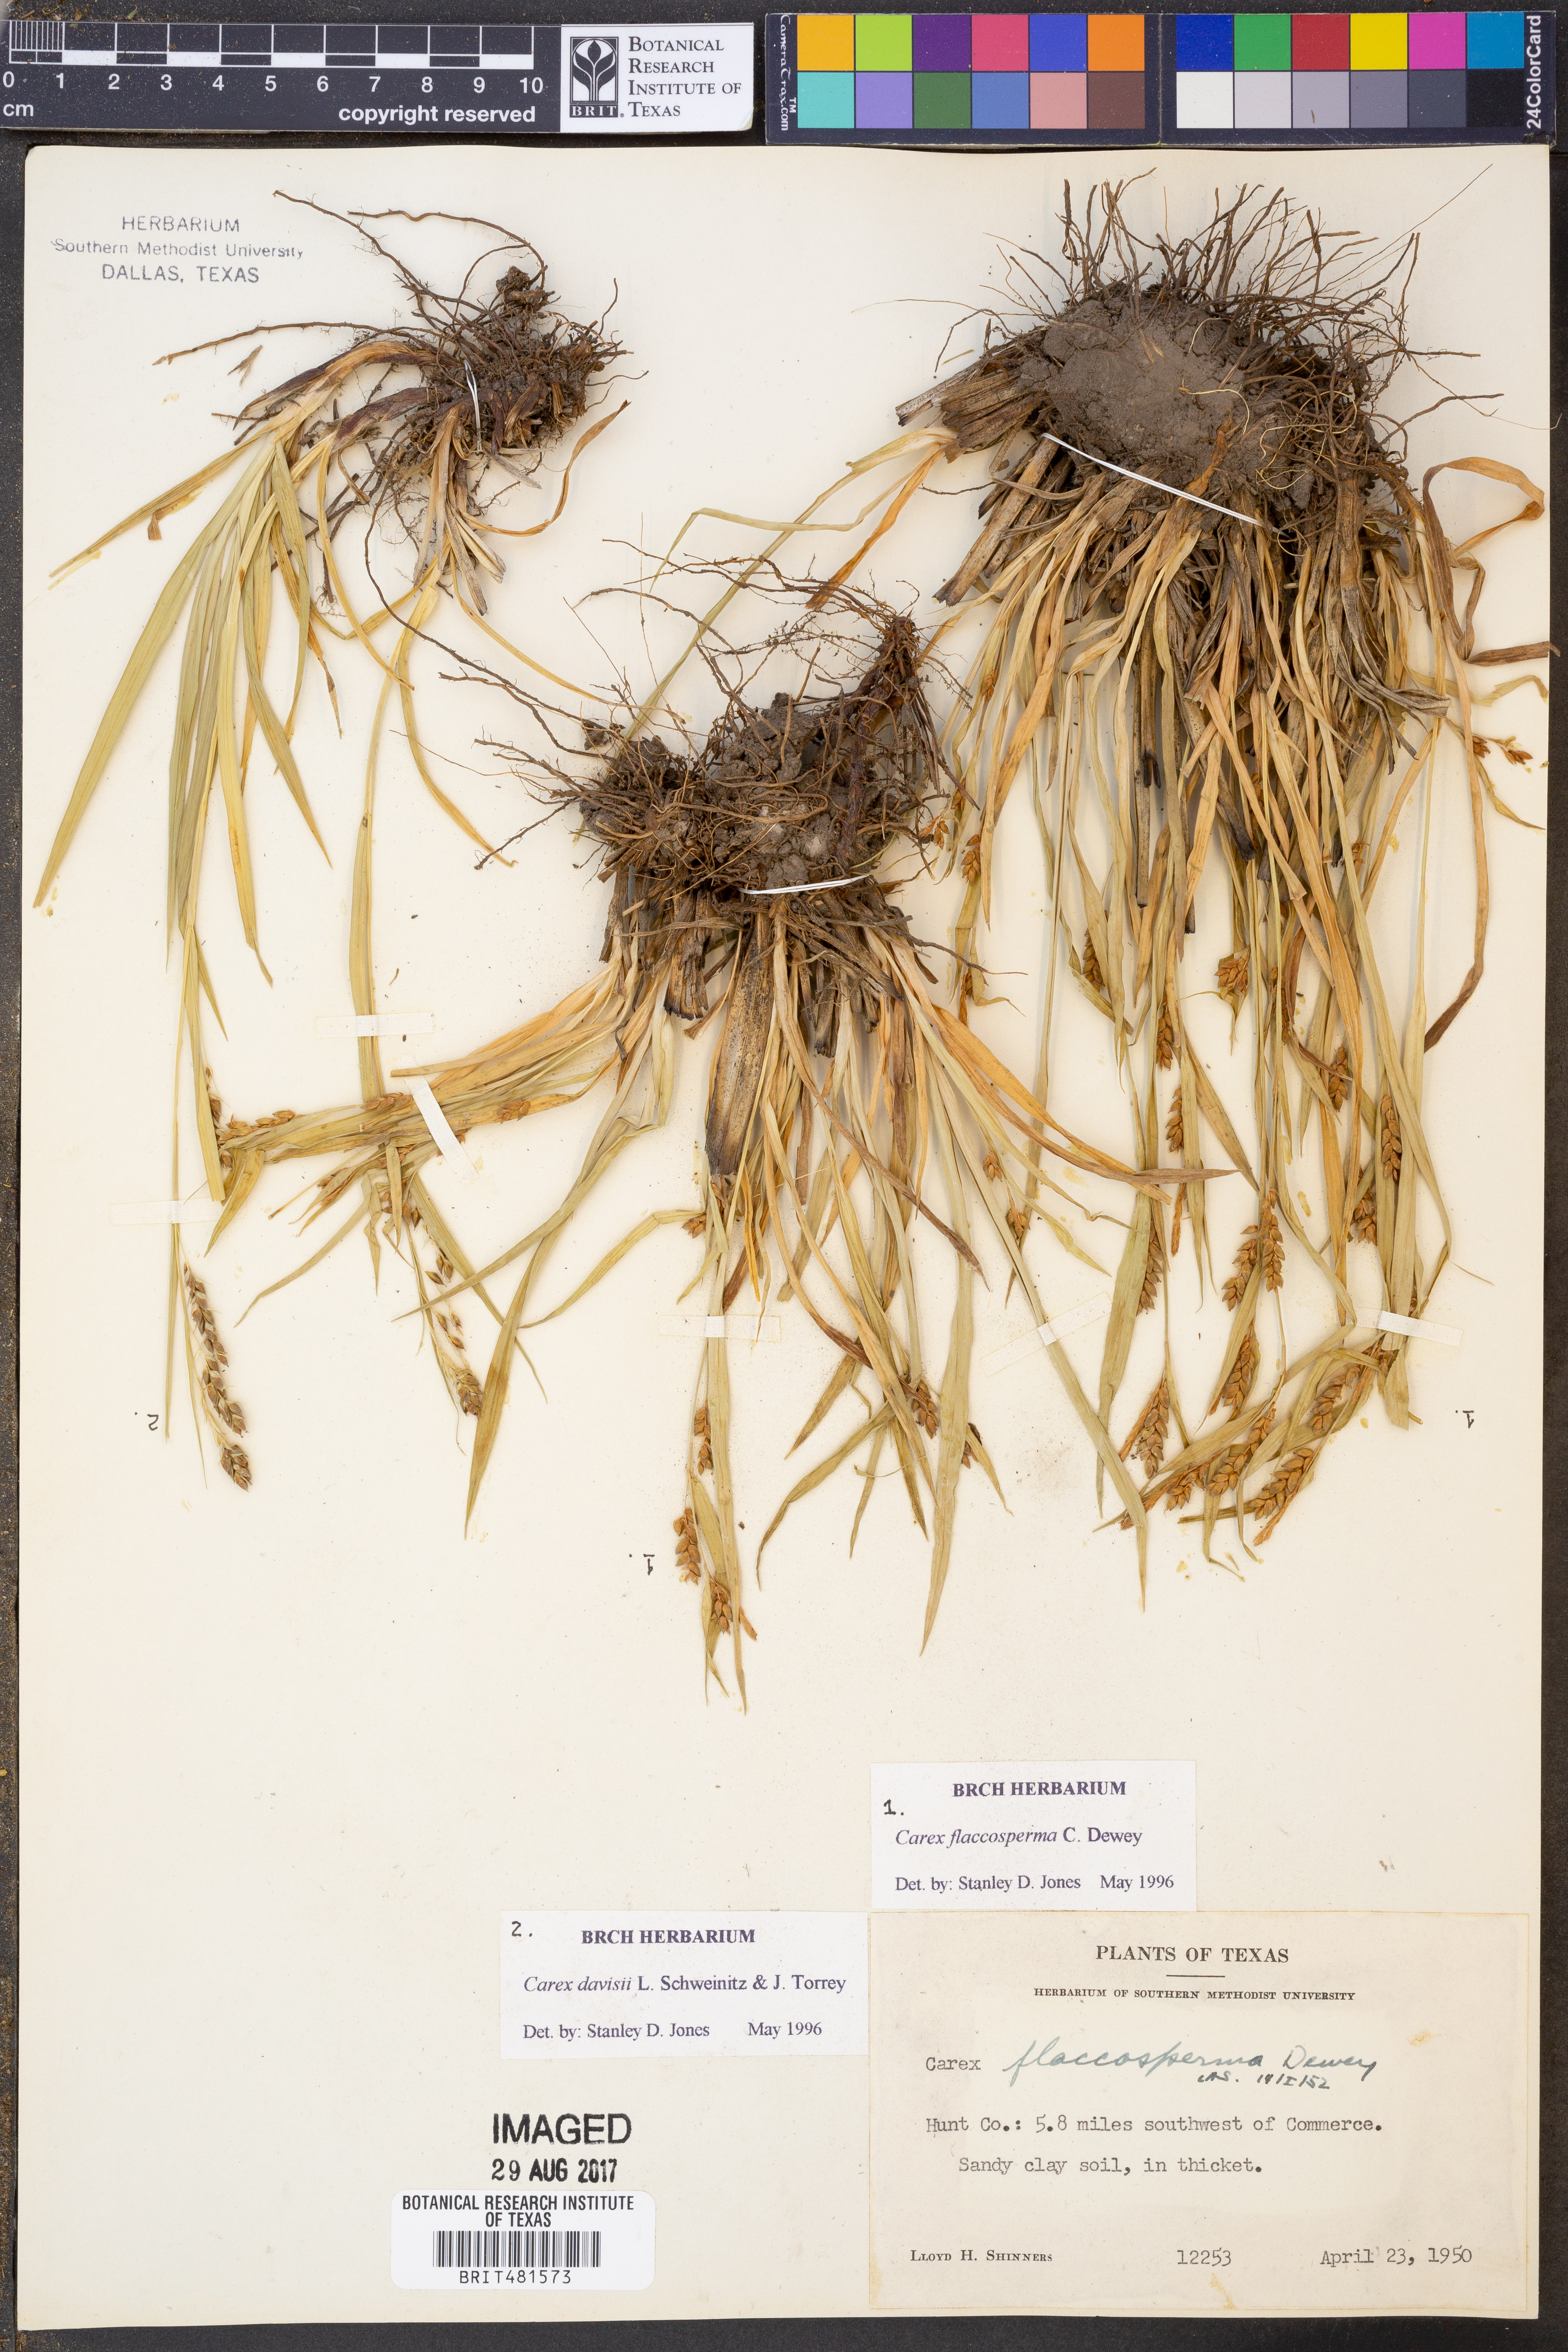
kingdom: Plantae
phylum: Tracheophyta
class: Liliopsida
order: Poales
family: Cyperaceae
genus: Carex
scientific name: Carex flaccosperma
